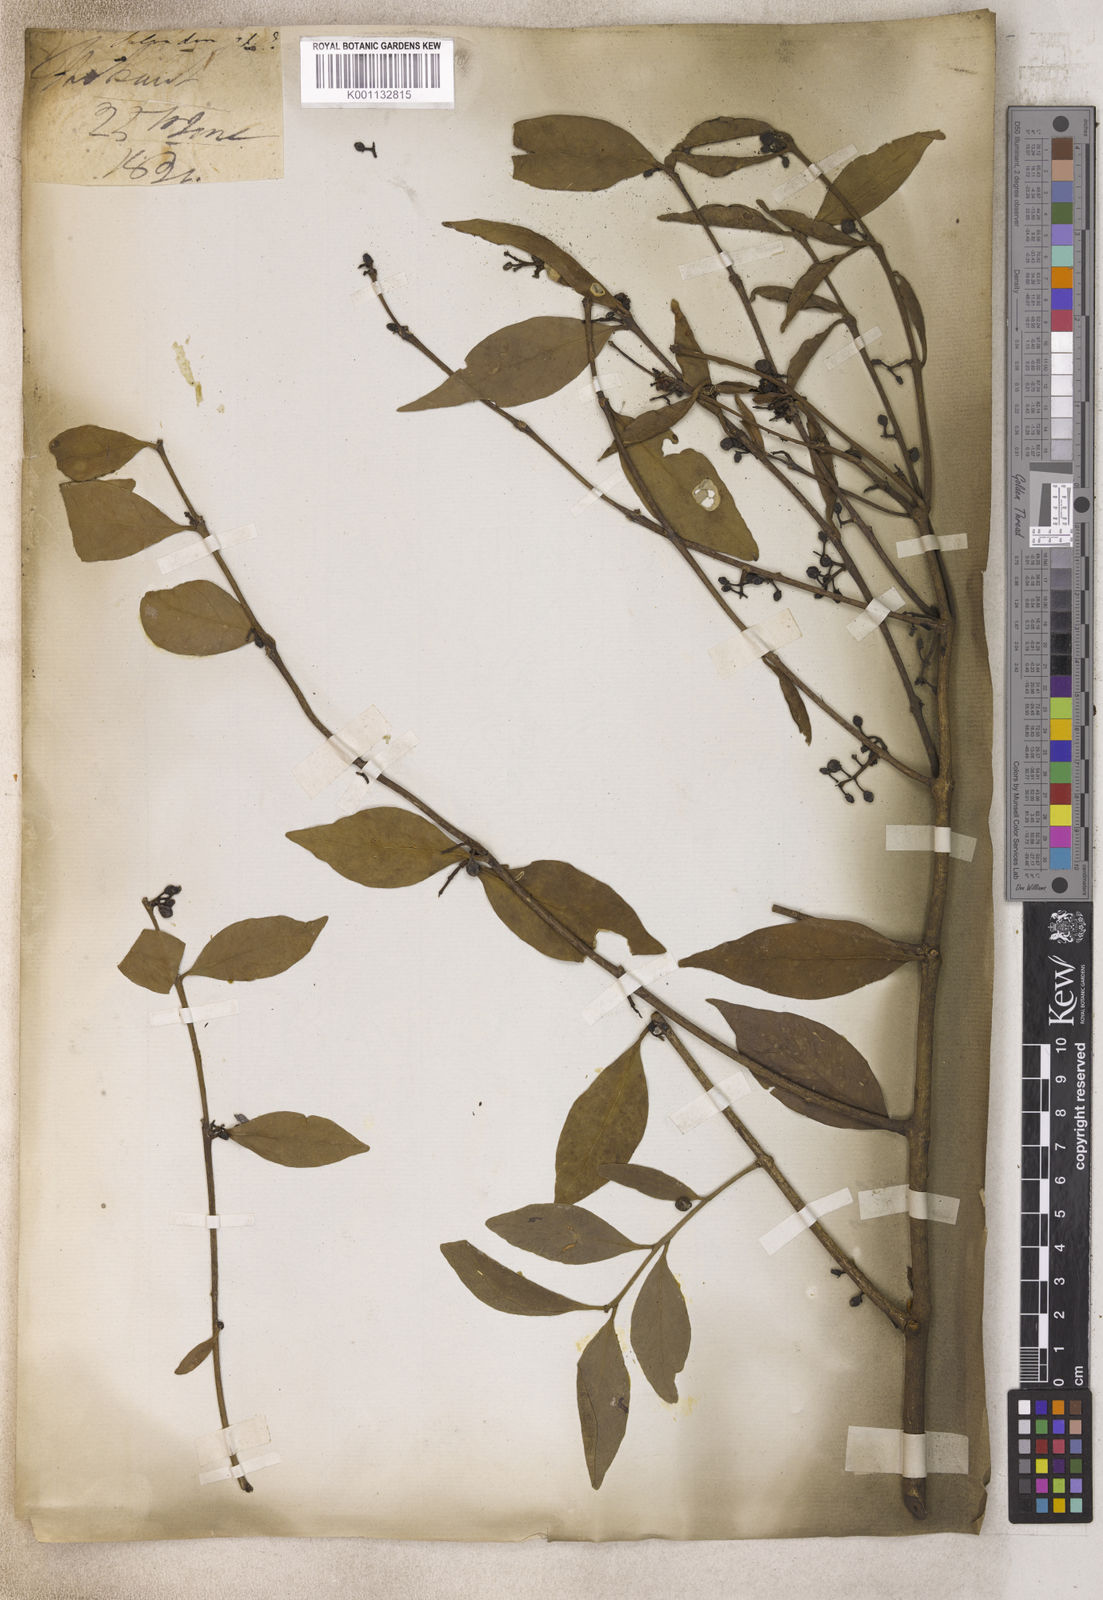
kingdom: Plantae
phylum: Tracheophyta
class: Magnoliopsida
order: Brassicales
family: Salvadoraceae
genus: Salvadora
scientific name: Salvadora
